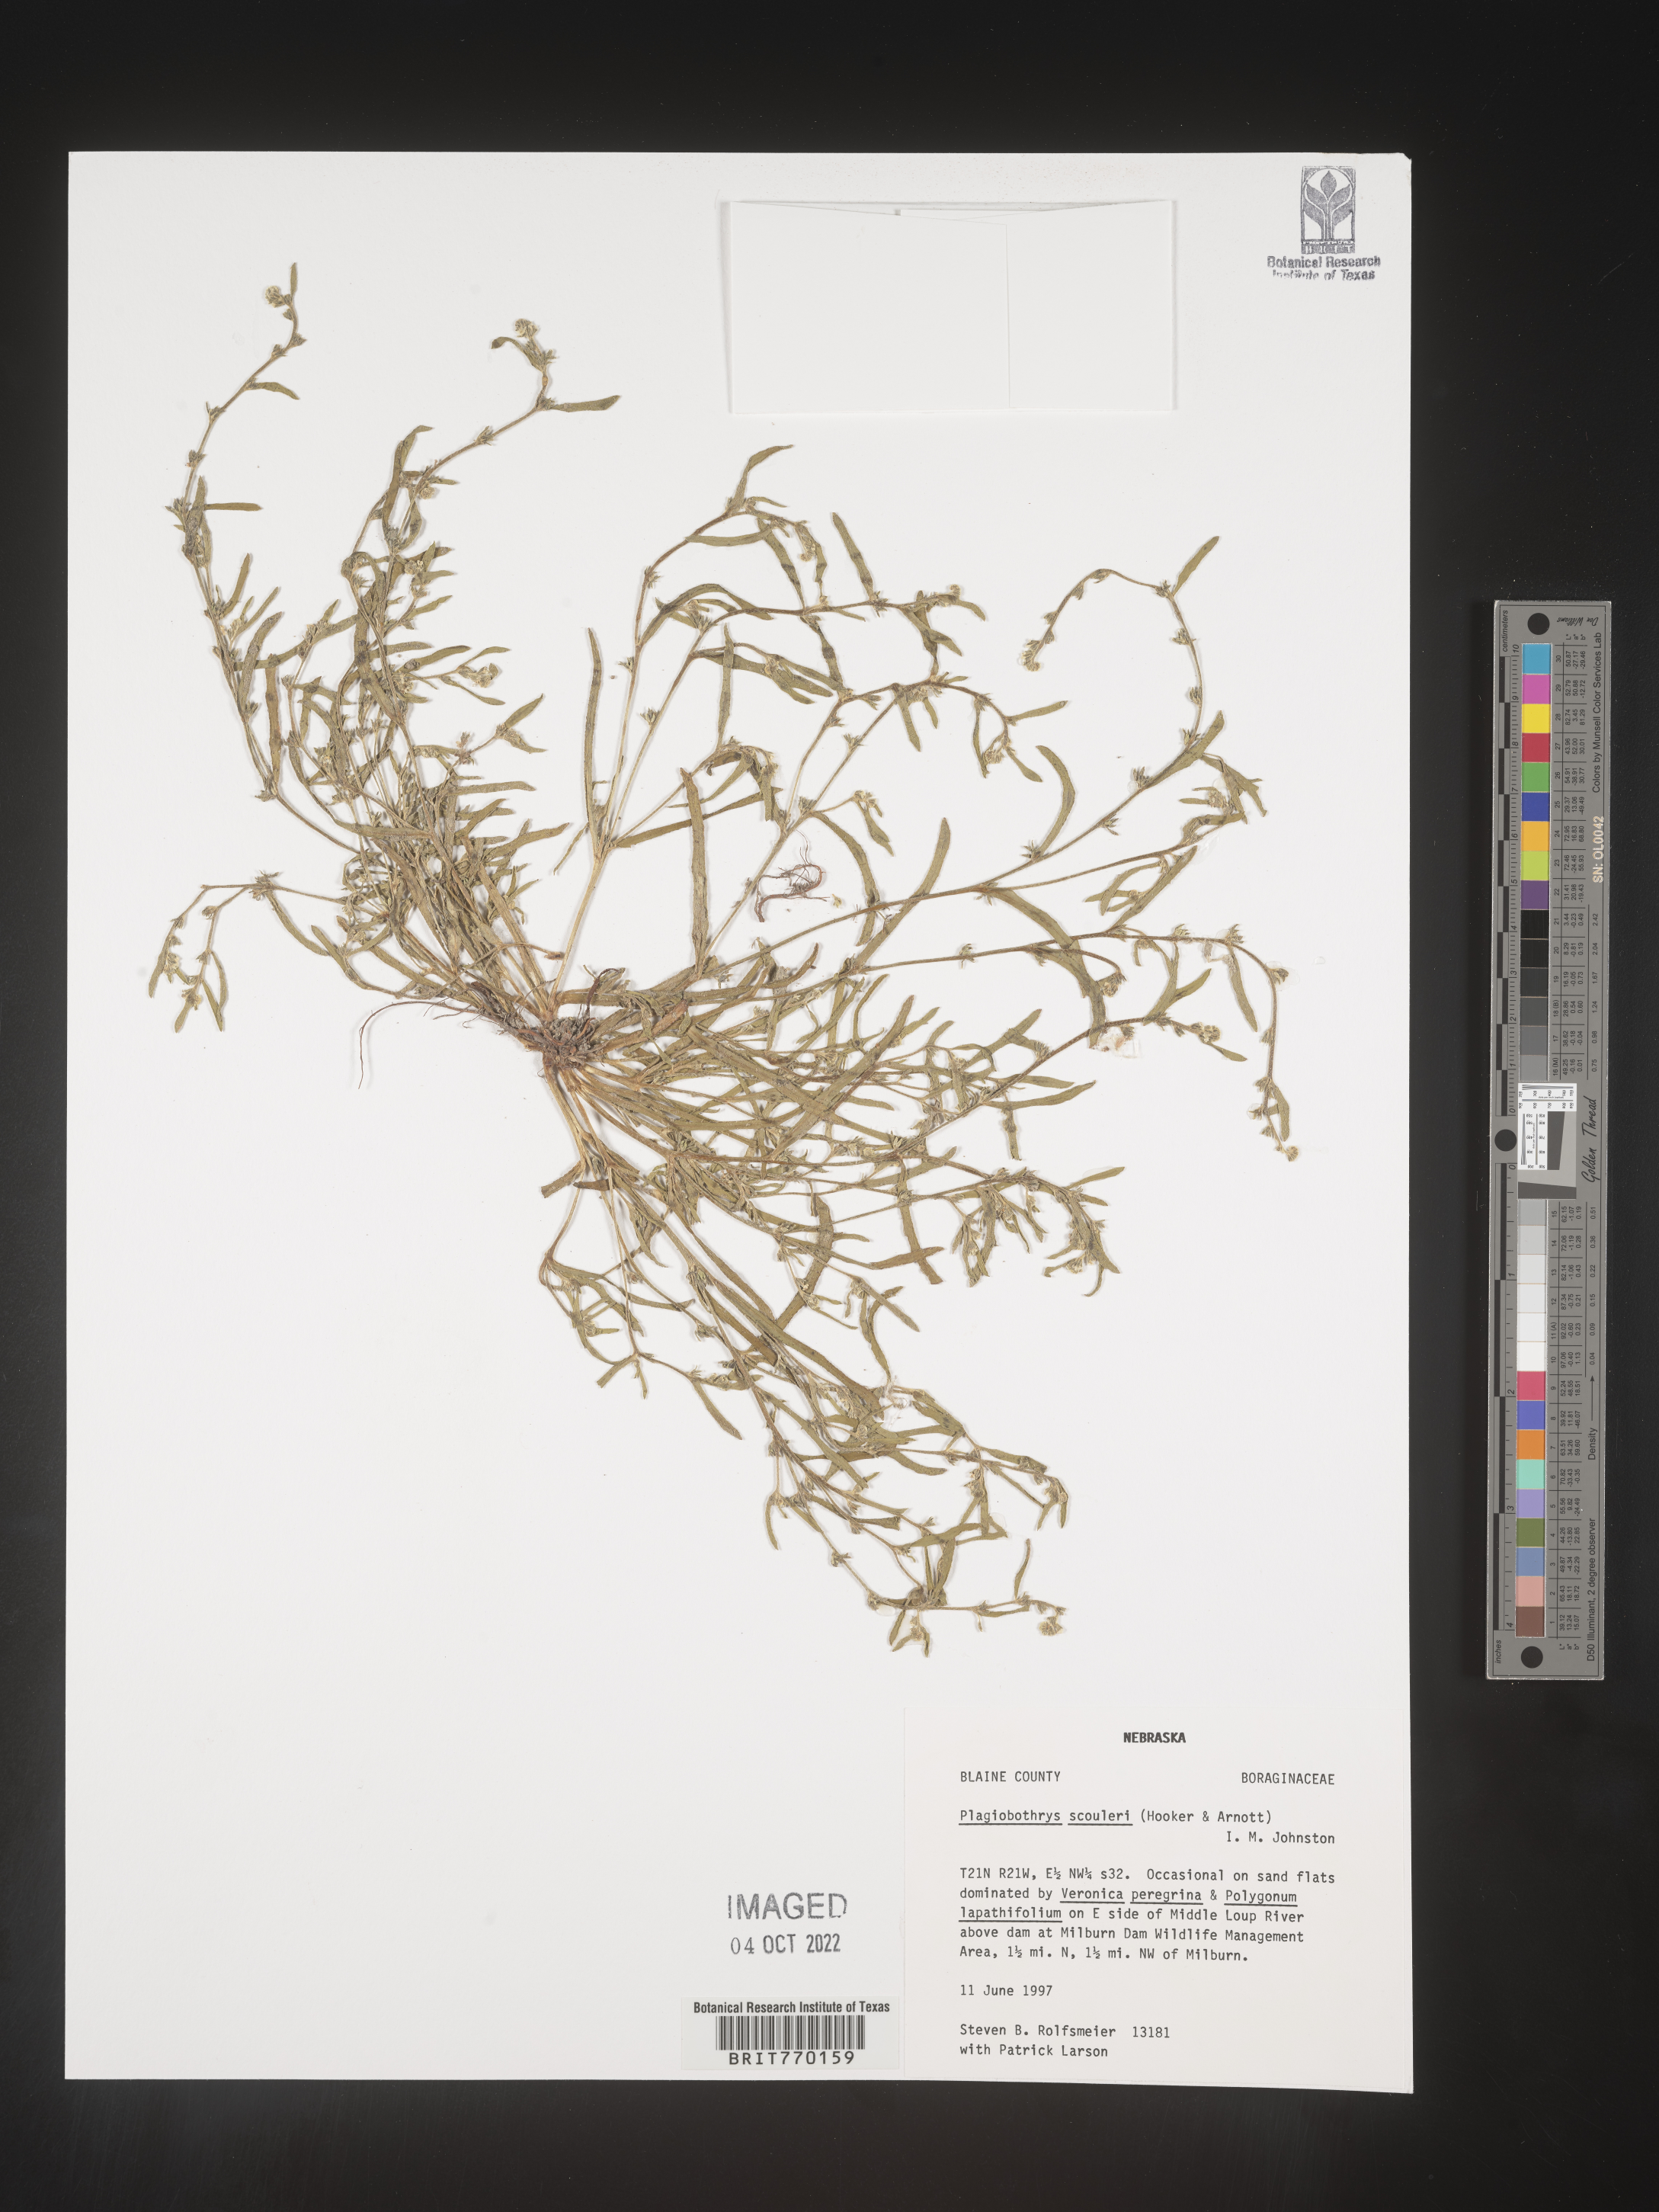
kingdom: Plantae
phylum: Tracheophyta
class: Magnoliopsida
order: Boraginales
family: Boraginaceae
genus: Plagiobothrys
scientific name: Plagiobothrys
